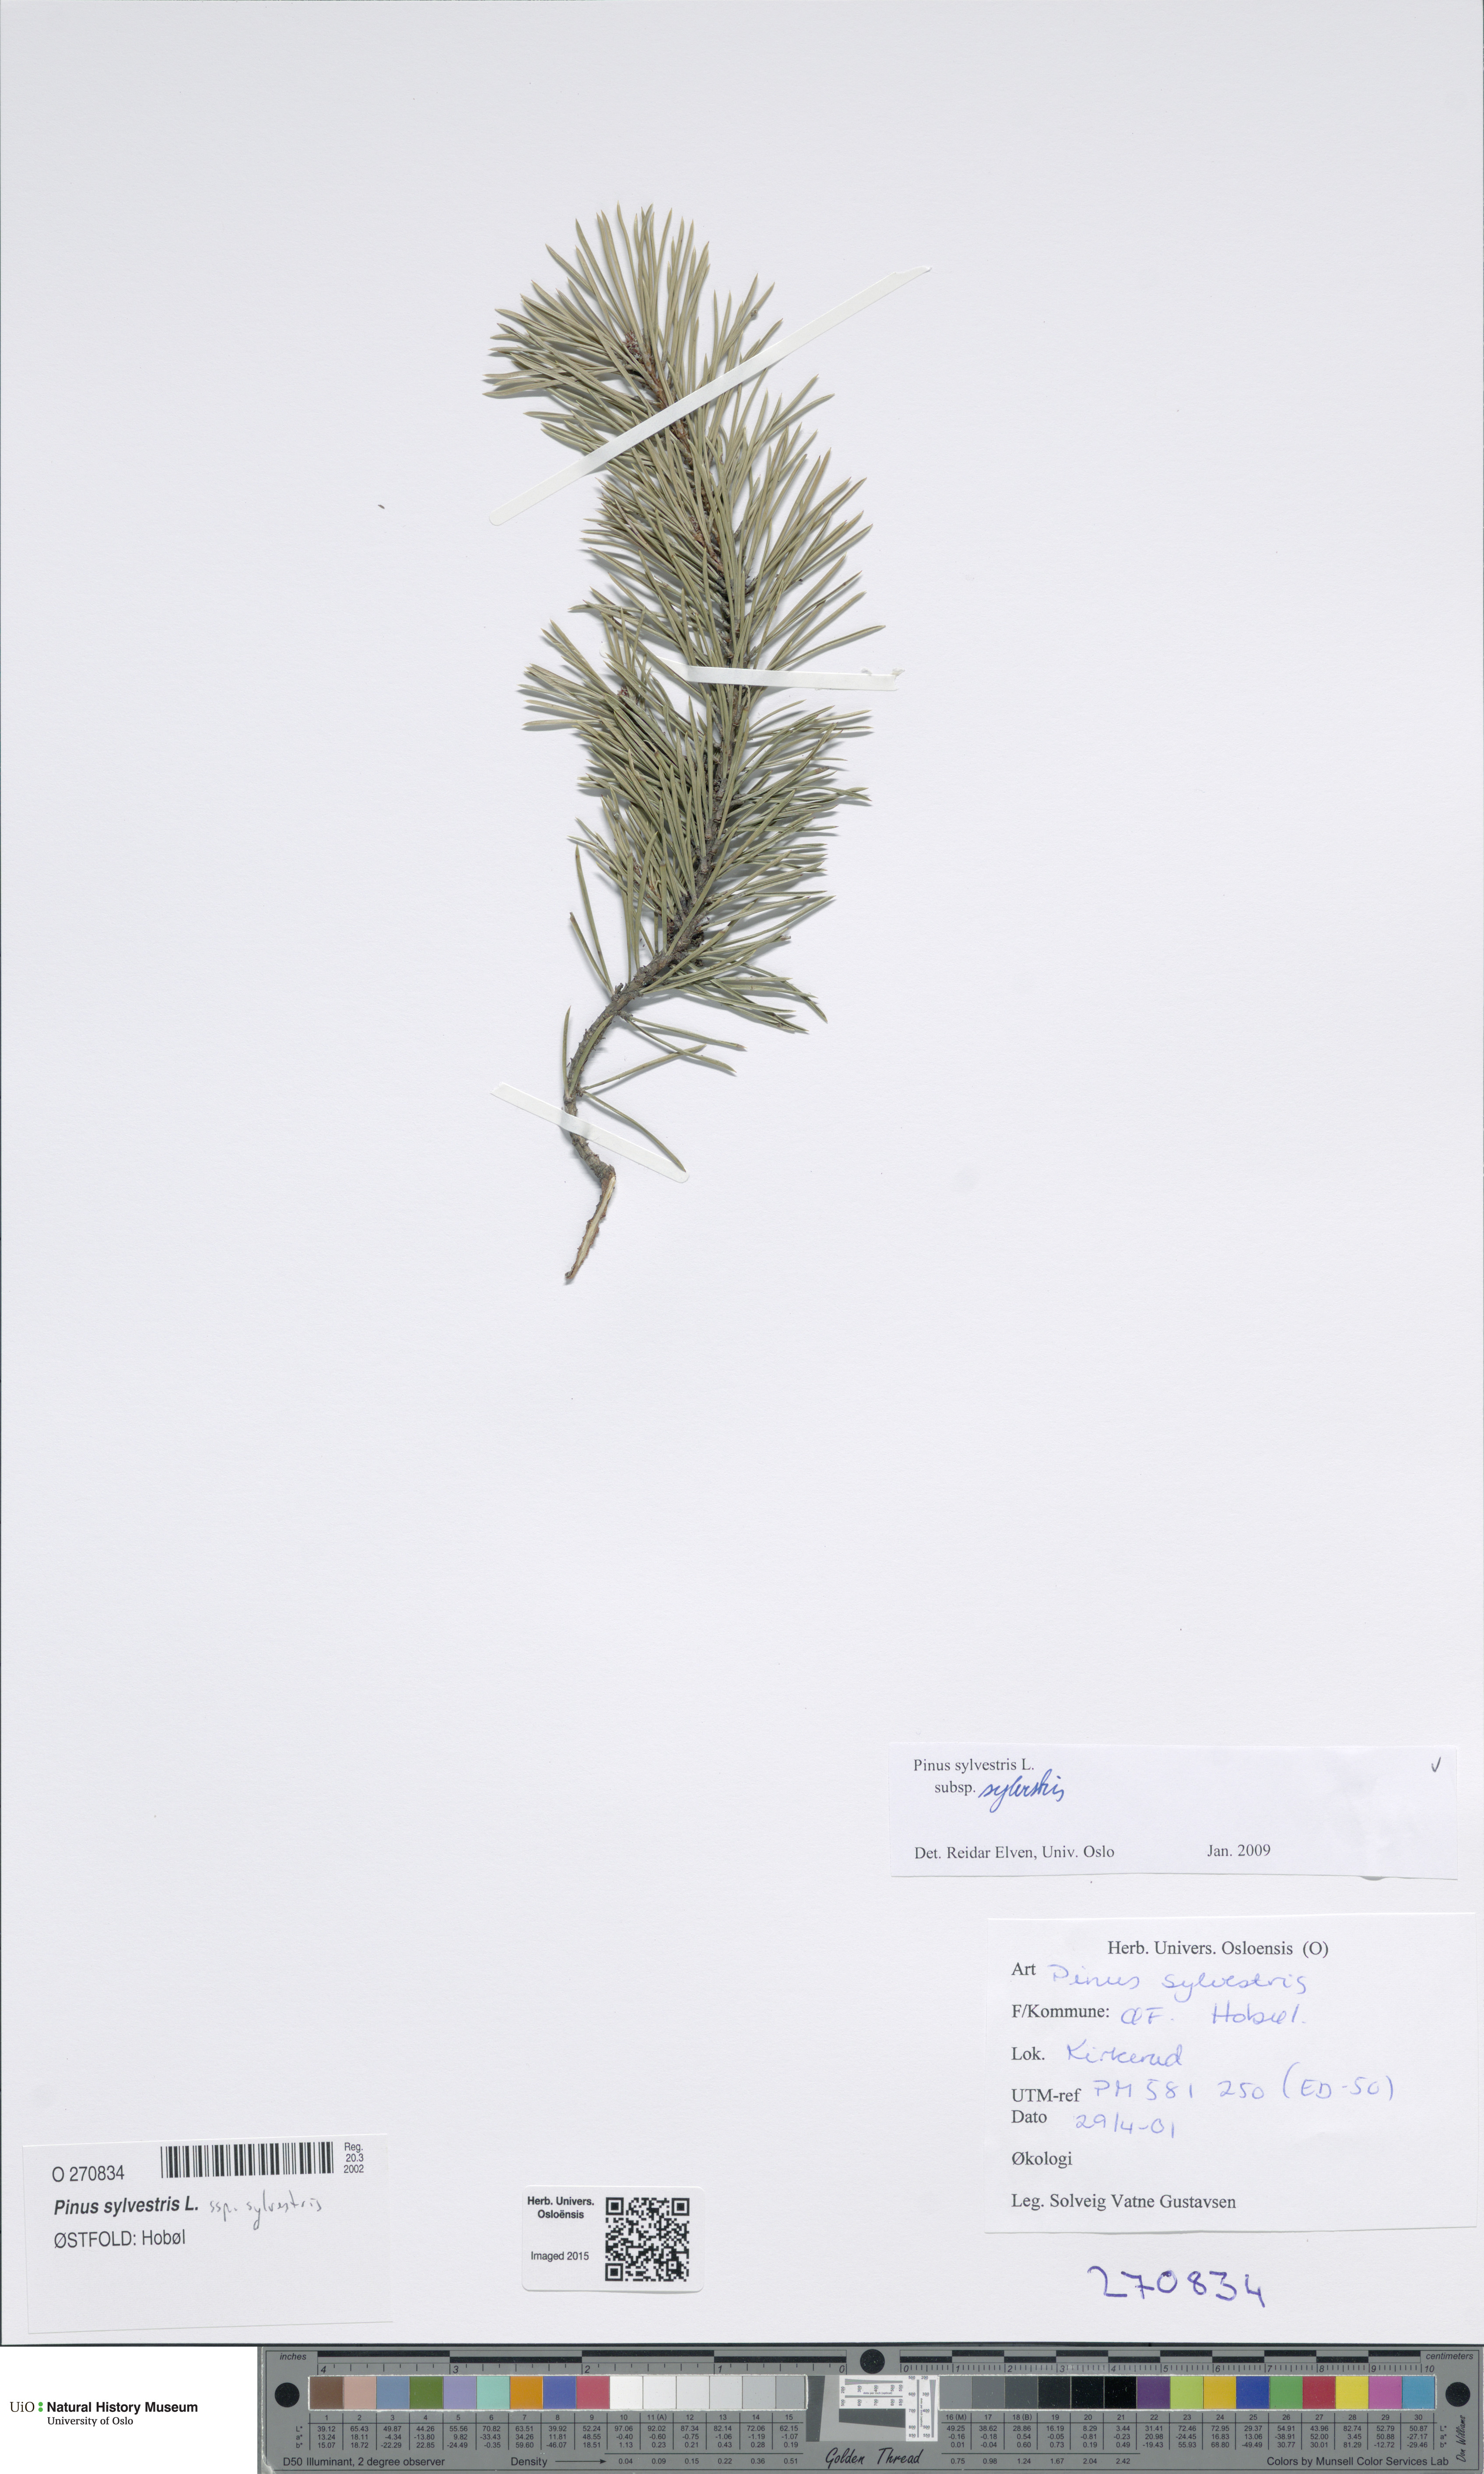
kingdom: Plantae
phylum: Tracheophyta
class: Pinopsida
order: Pinales
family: Pinaceae
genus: Pinus
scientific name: Pinus sylvestris
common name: Scots pine
